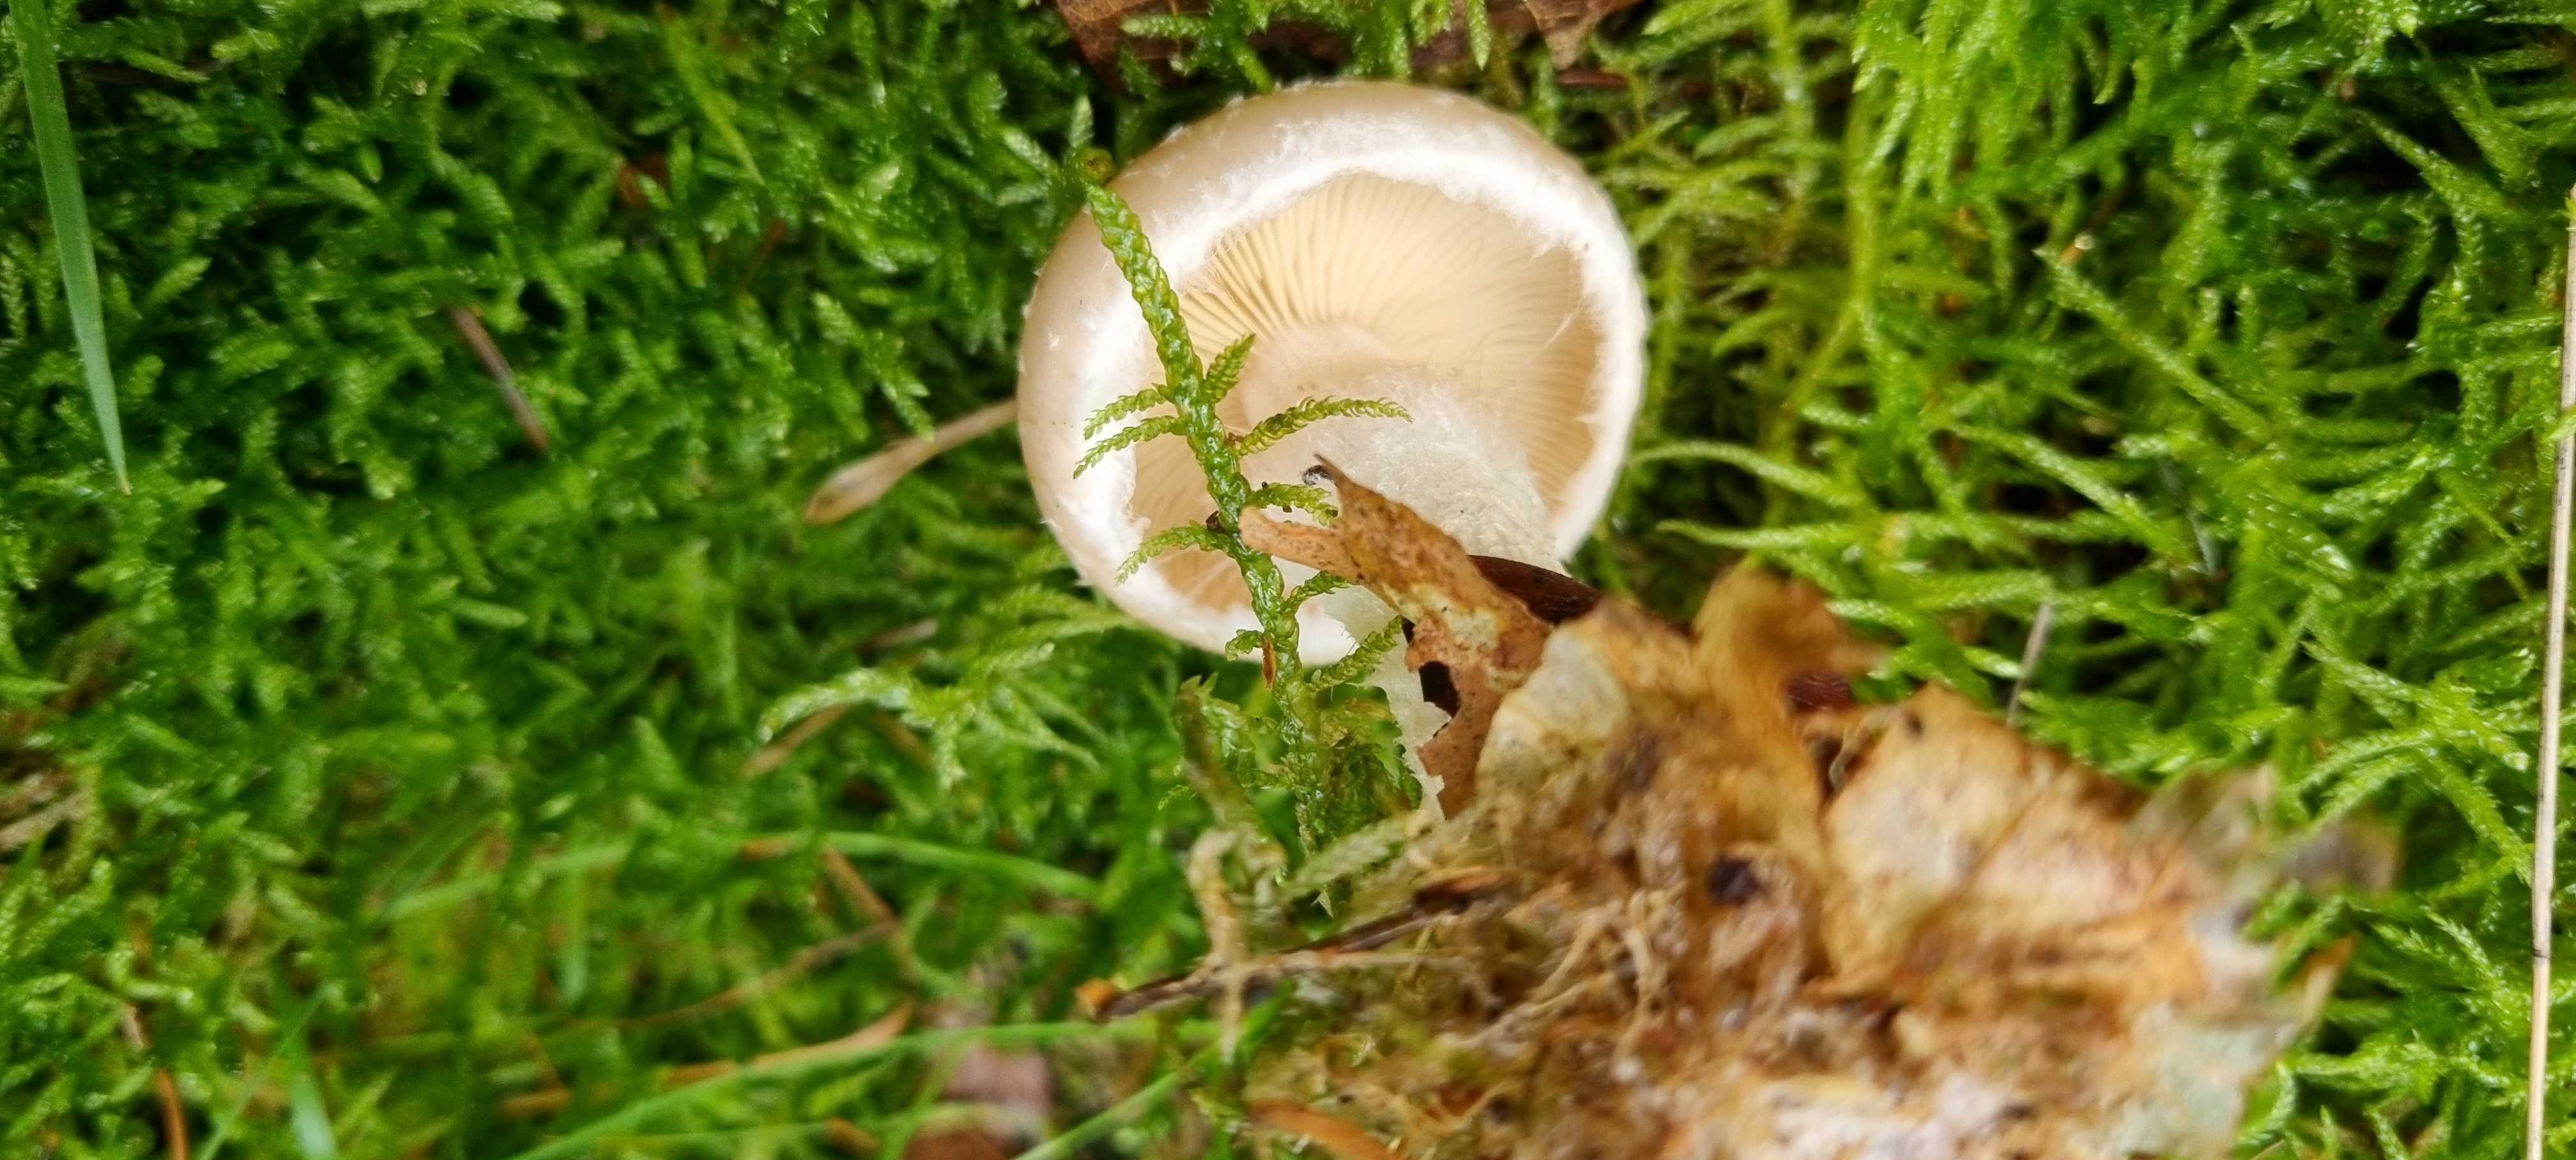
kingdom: Fungi
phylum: Basidiomycota
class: Agaricomycetes
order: Agaricales
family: Strophariaceae
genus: Pholiota
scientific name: Pholiota lenta
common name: løv-skælhat
